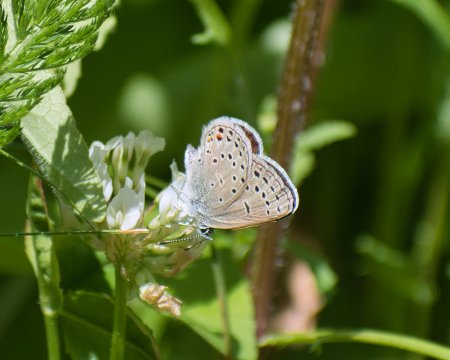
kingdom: Animalia
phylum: Arthropoda
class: Insecta
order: Lepidoptera
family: Lycaenidae
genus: Plebejus
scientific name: Plebejus saepiolus
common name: Greenish Blue
